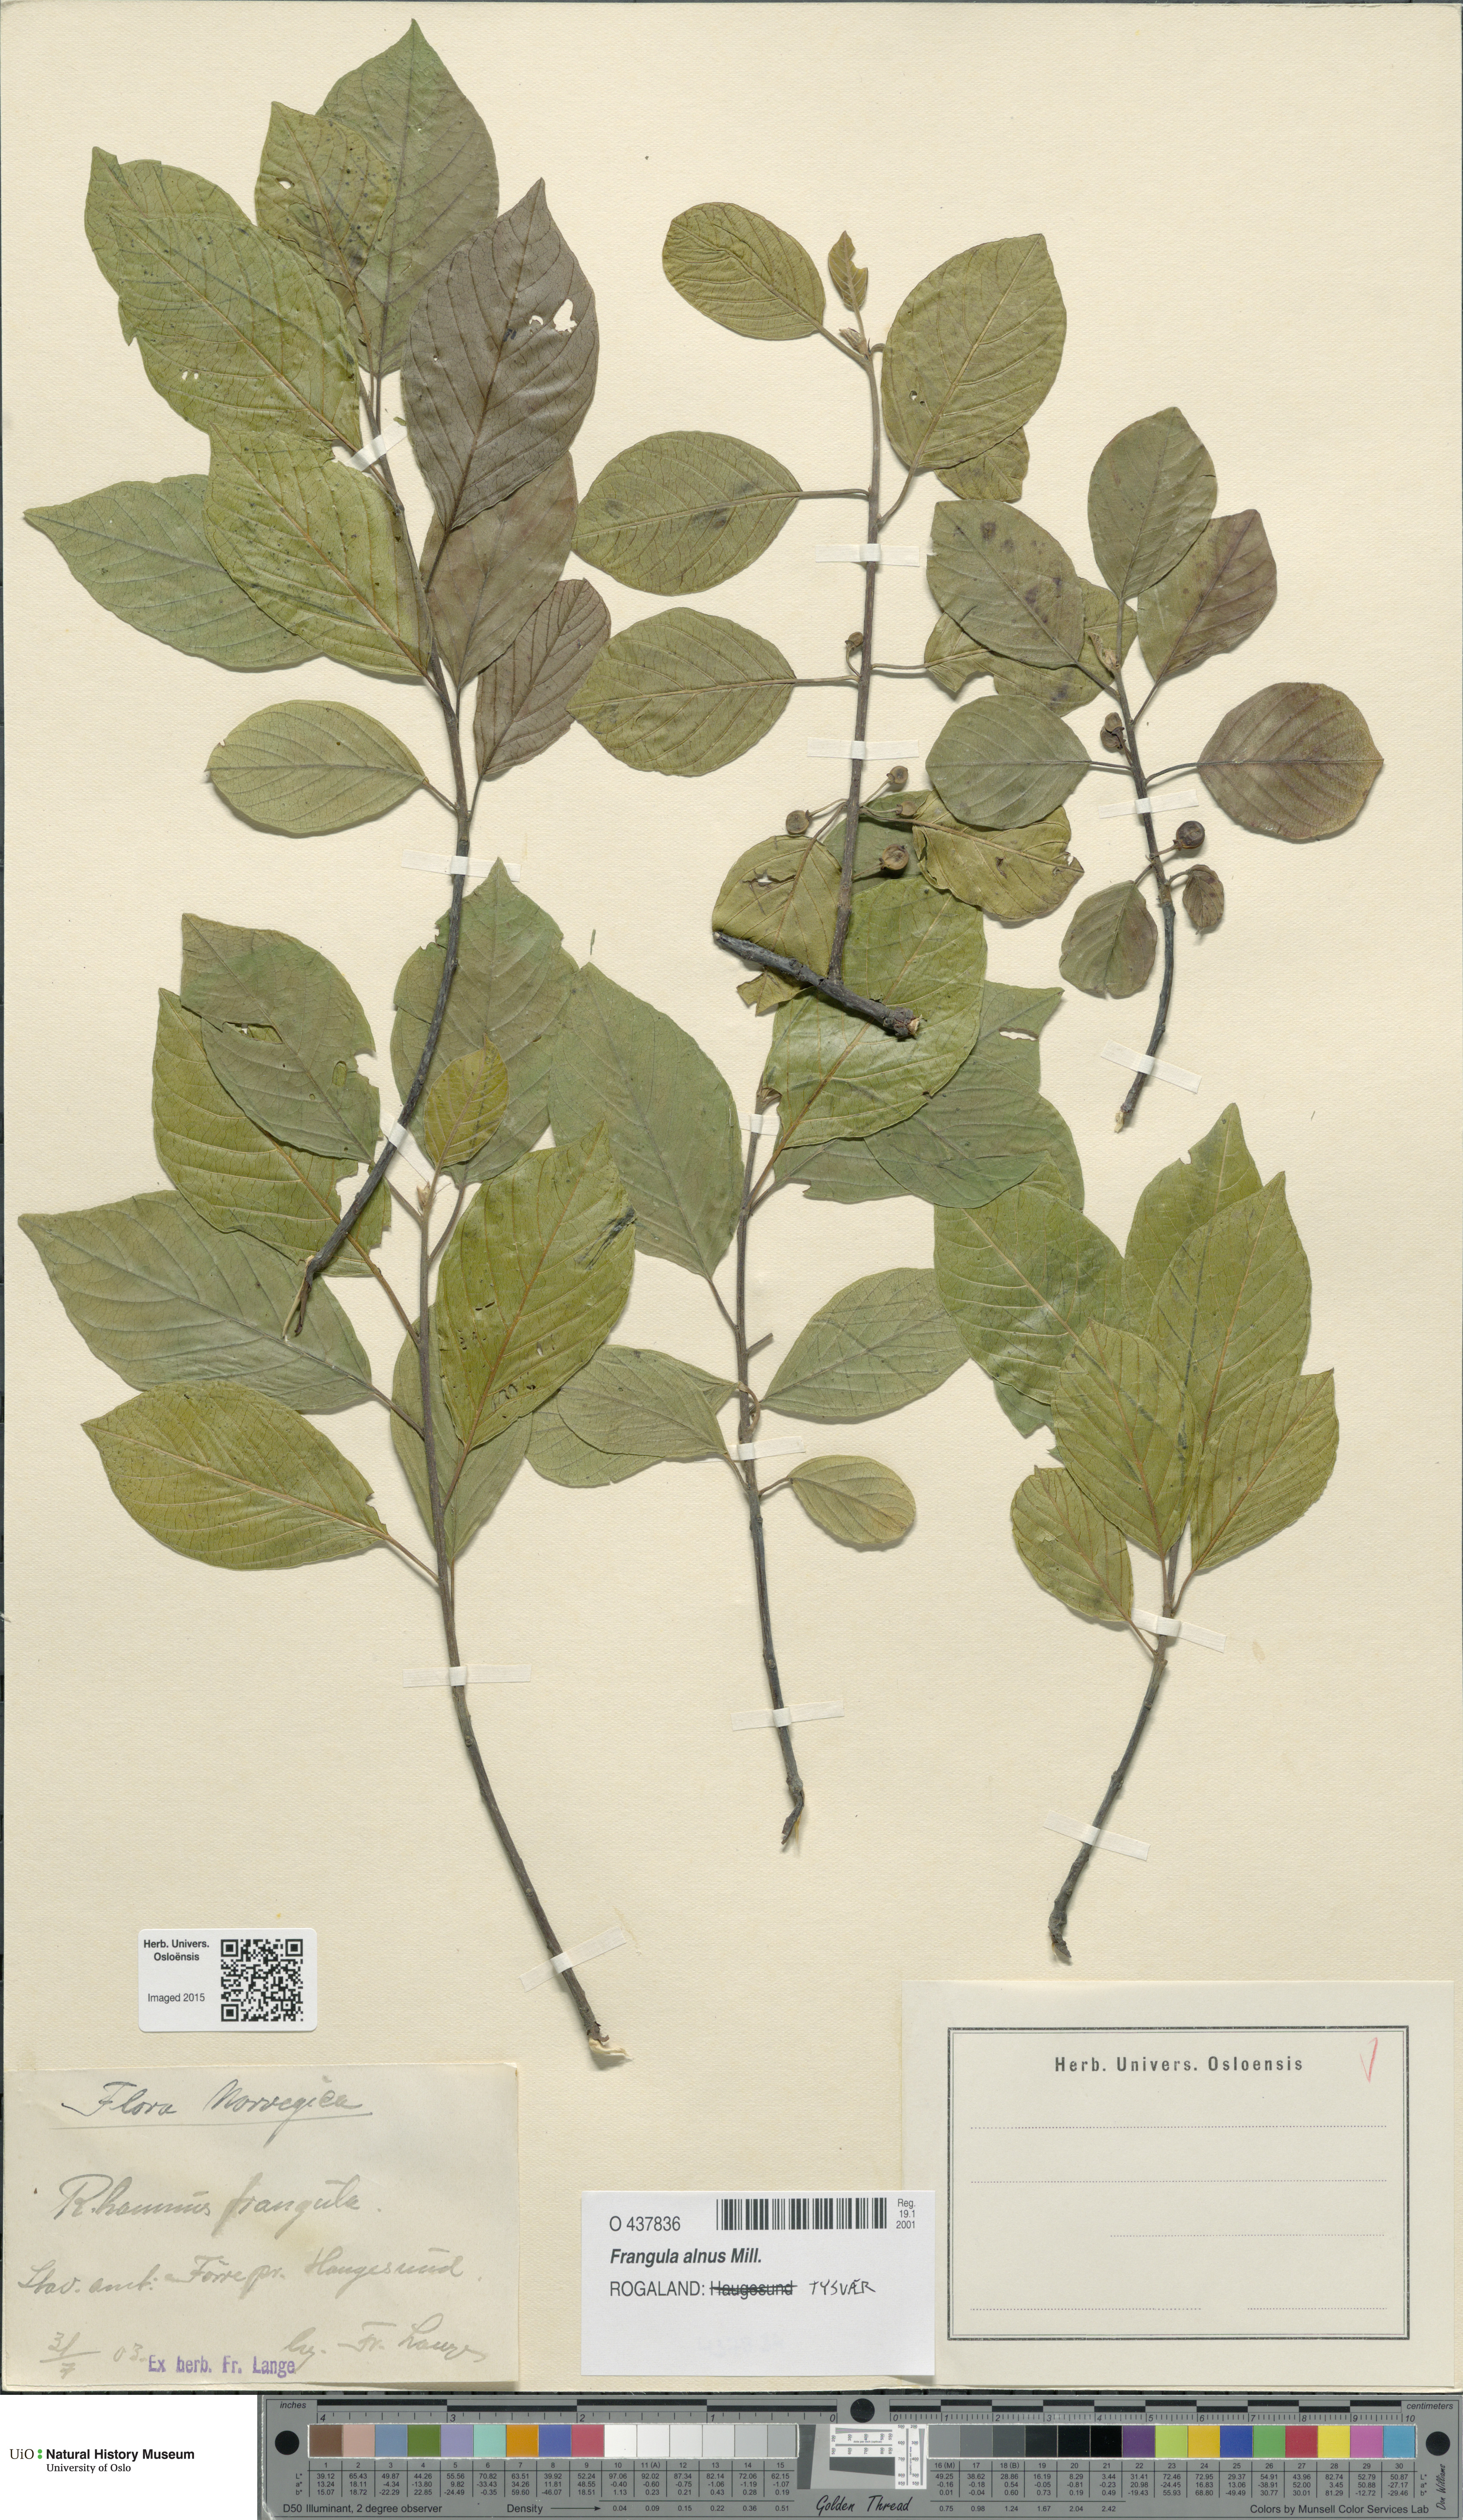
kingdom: Plantae
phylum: Tracheophyta
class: Magnoliopsida
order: Rosales
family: Rhamnaceae
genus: Frangula
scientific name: Frangula alnus
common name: Alder buckthorn
